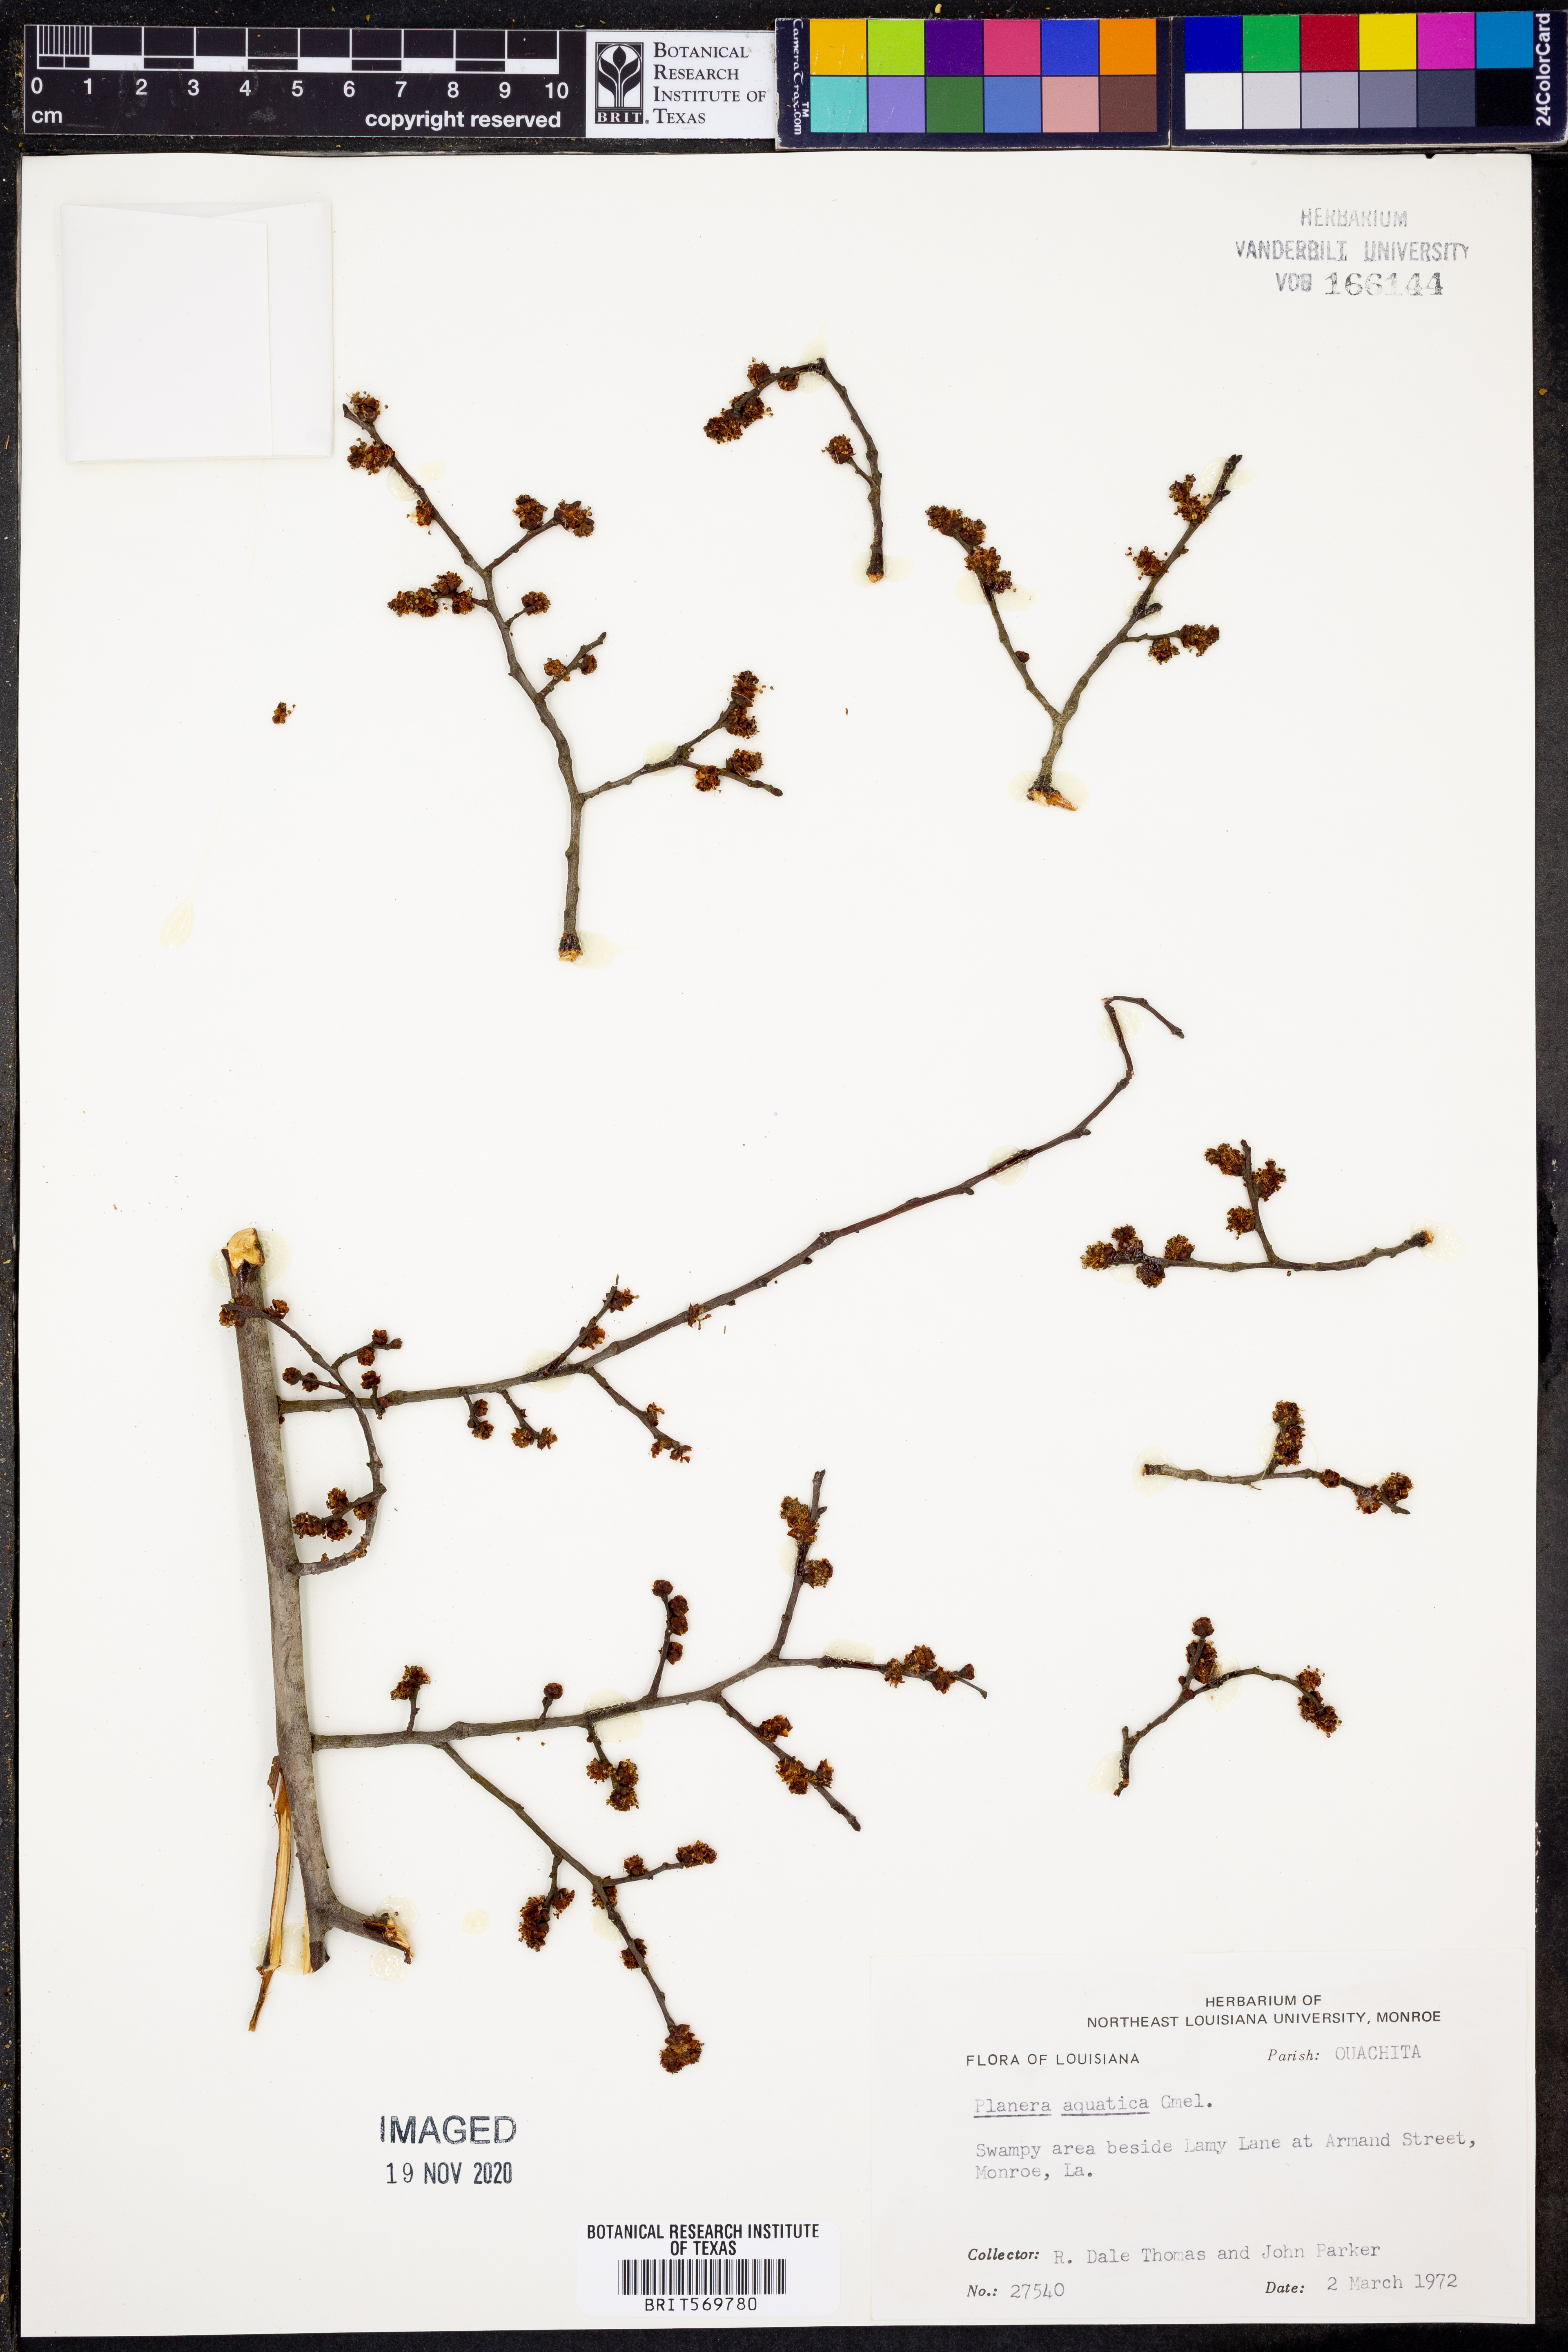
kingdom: Plantae
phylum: Tracheophyta
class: Magnoliopsida
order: Rosales
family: Ulmaceae
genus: Planera
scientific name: Planera aquatica
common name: Water-elm
